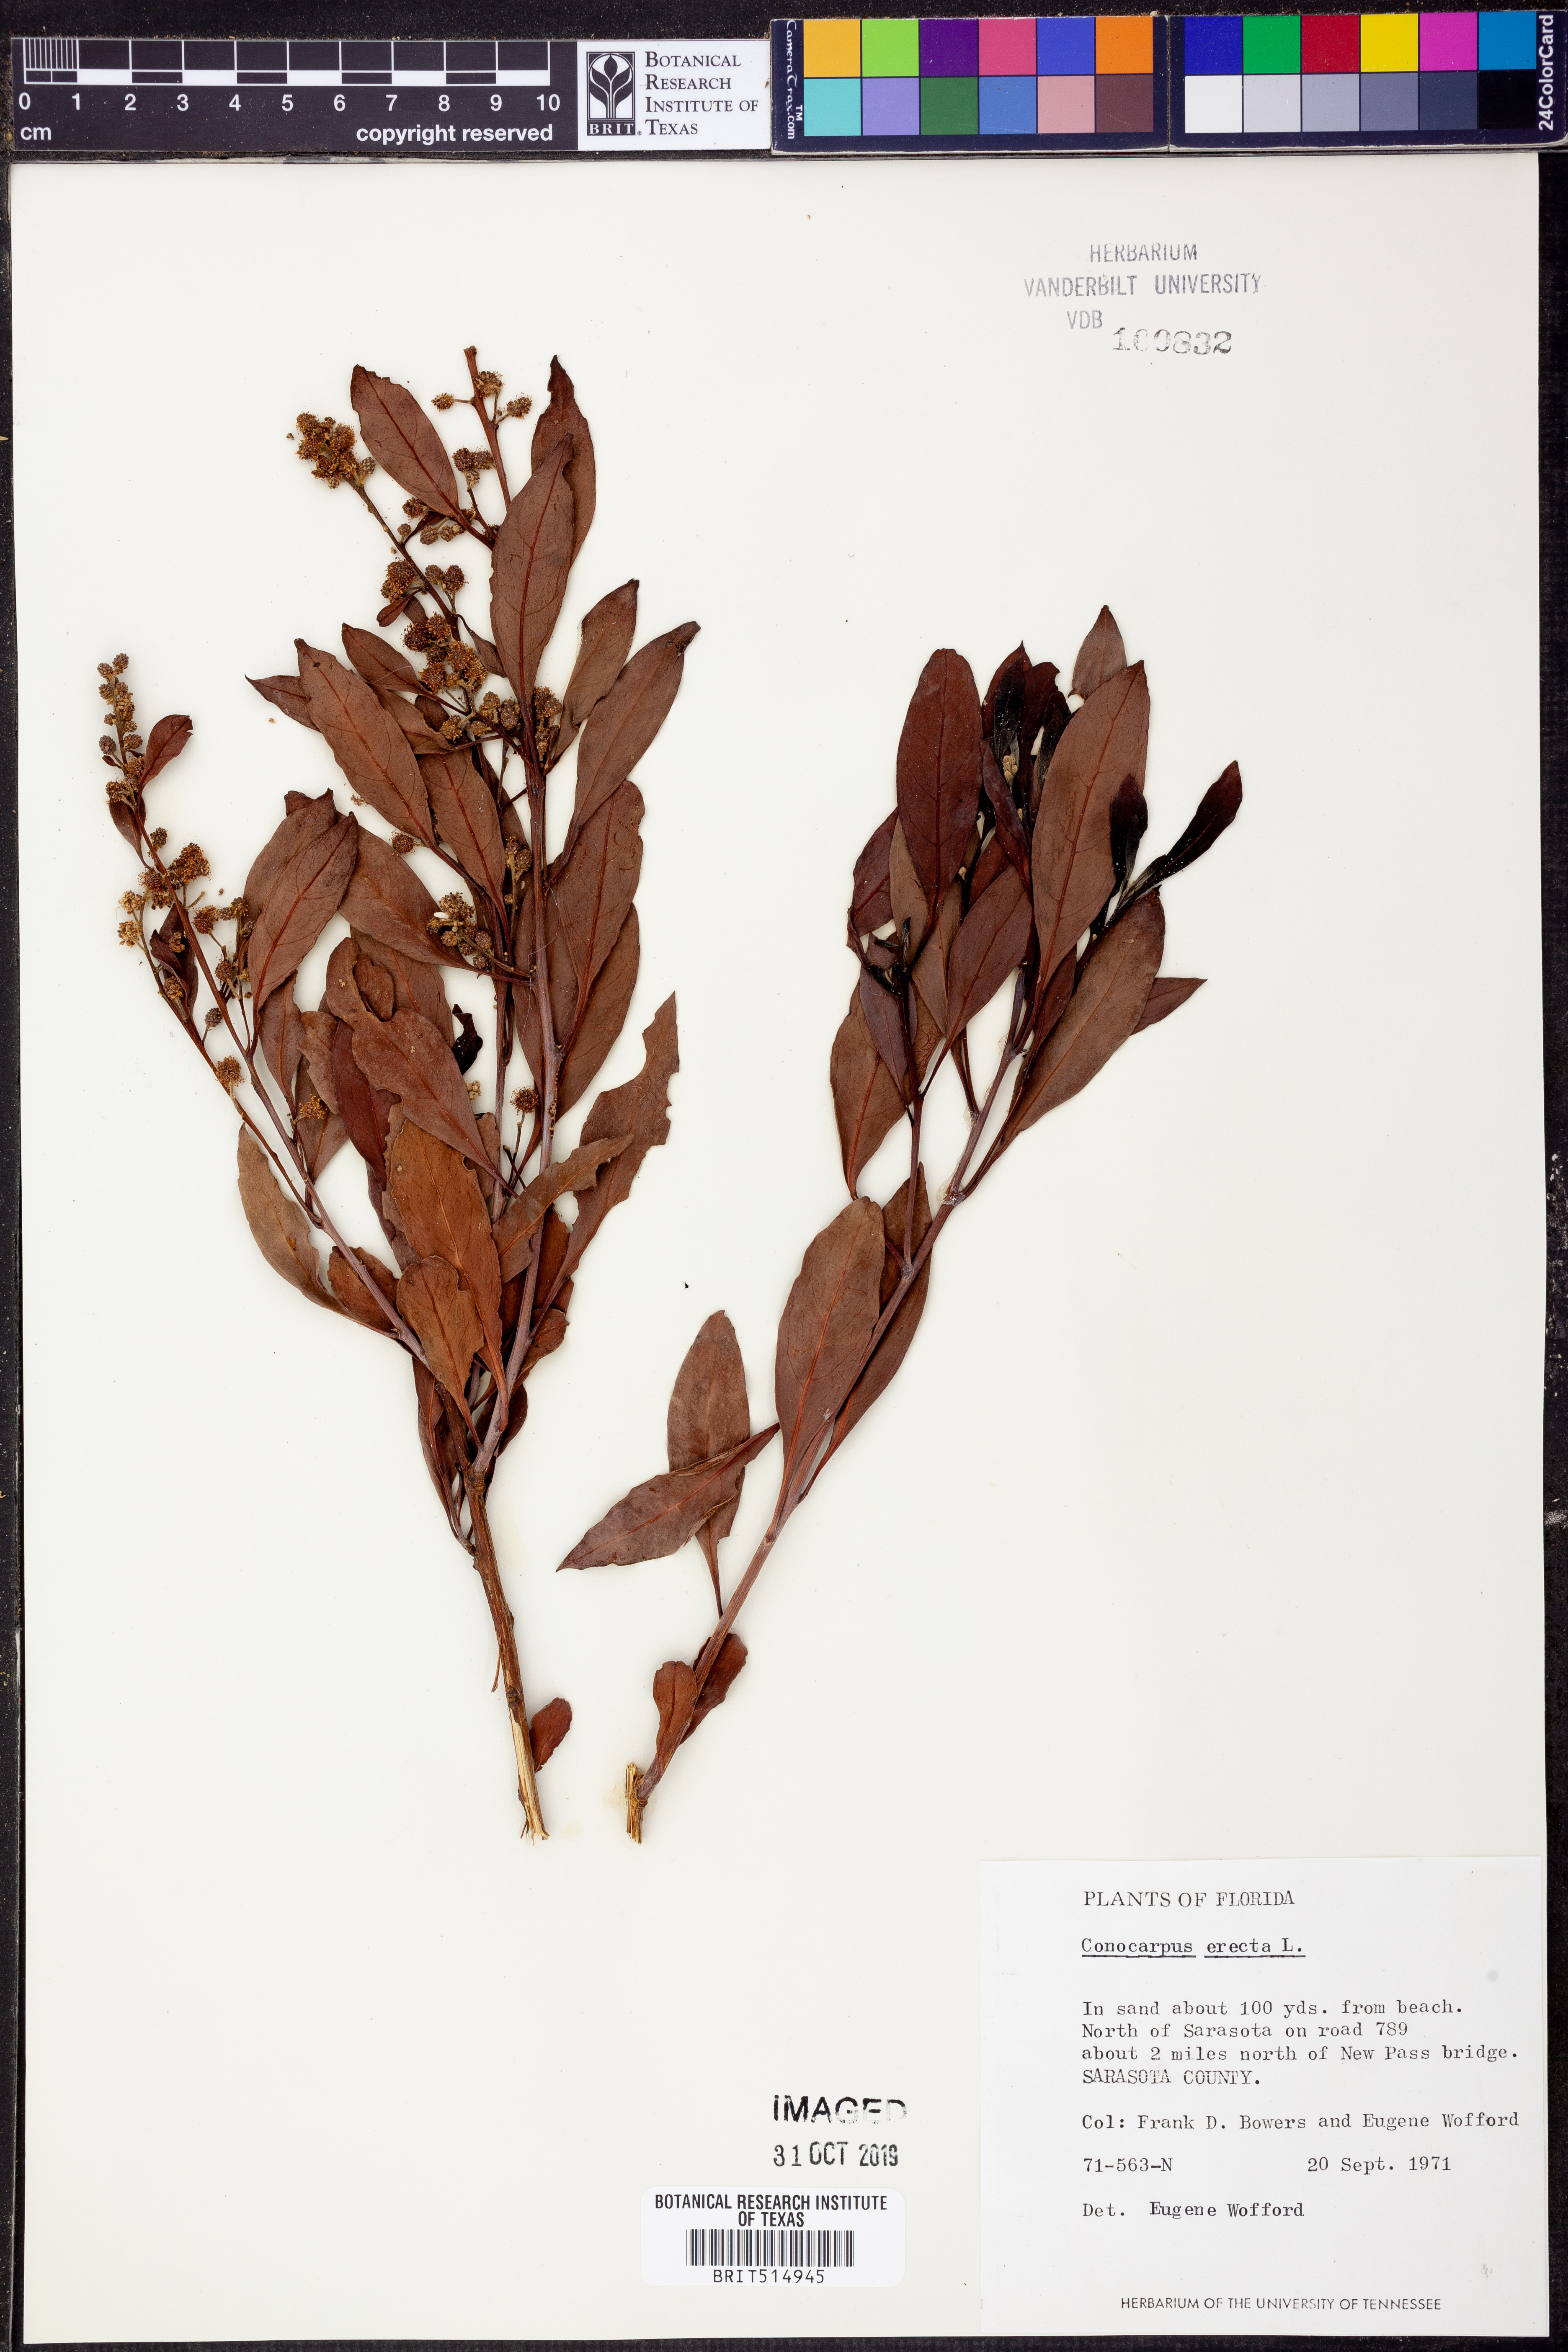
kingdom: Plantae
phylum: Tracheophyta
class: Magnoliopsida
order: Myrtales
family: Combretaceae
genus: Conocarpus
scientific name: Conocarpus erectus
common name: Button mangrove
